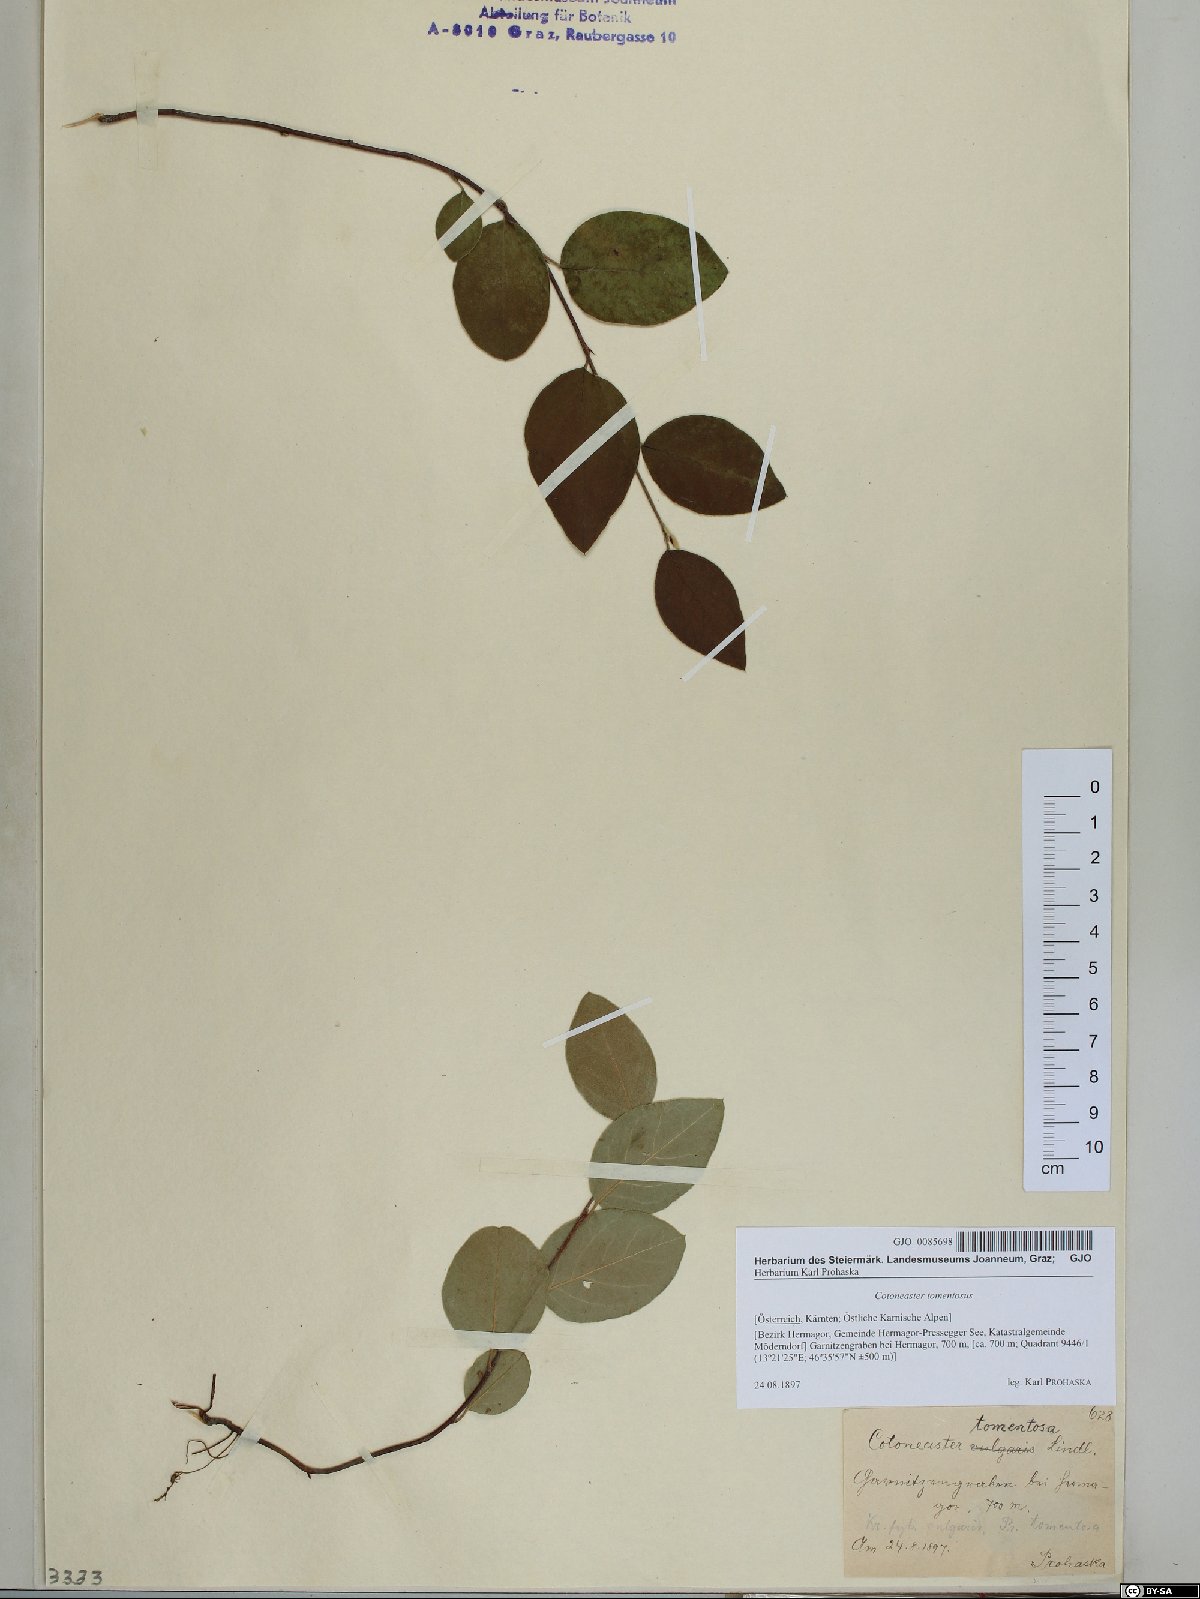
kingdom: Plantae
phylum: Tracheophyta
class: Magnoliopsida
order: Rosales
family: Rosaceae
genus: Cotoneaster
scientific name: Cotoneaster tomentosus
